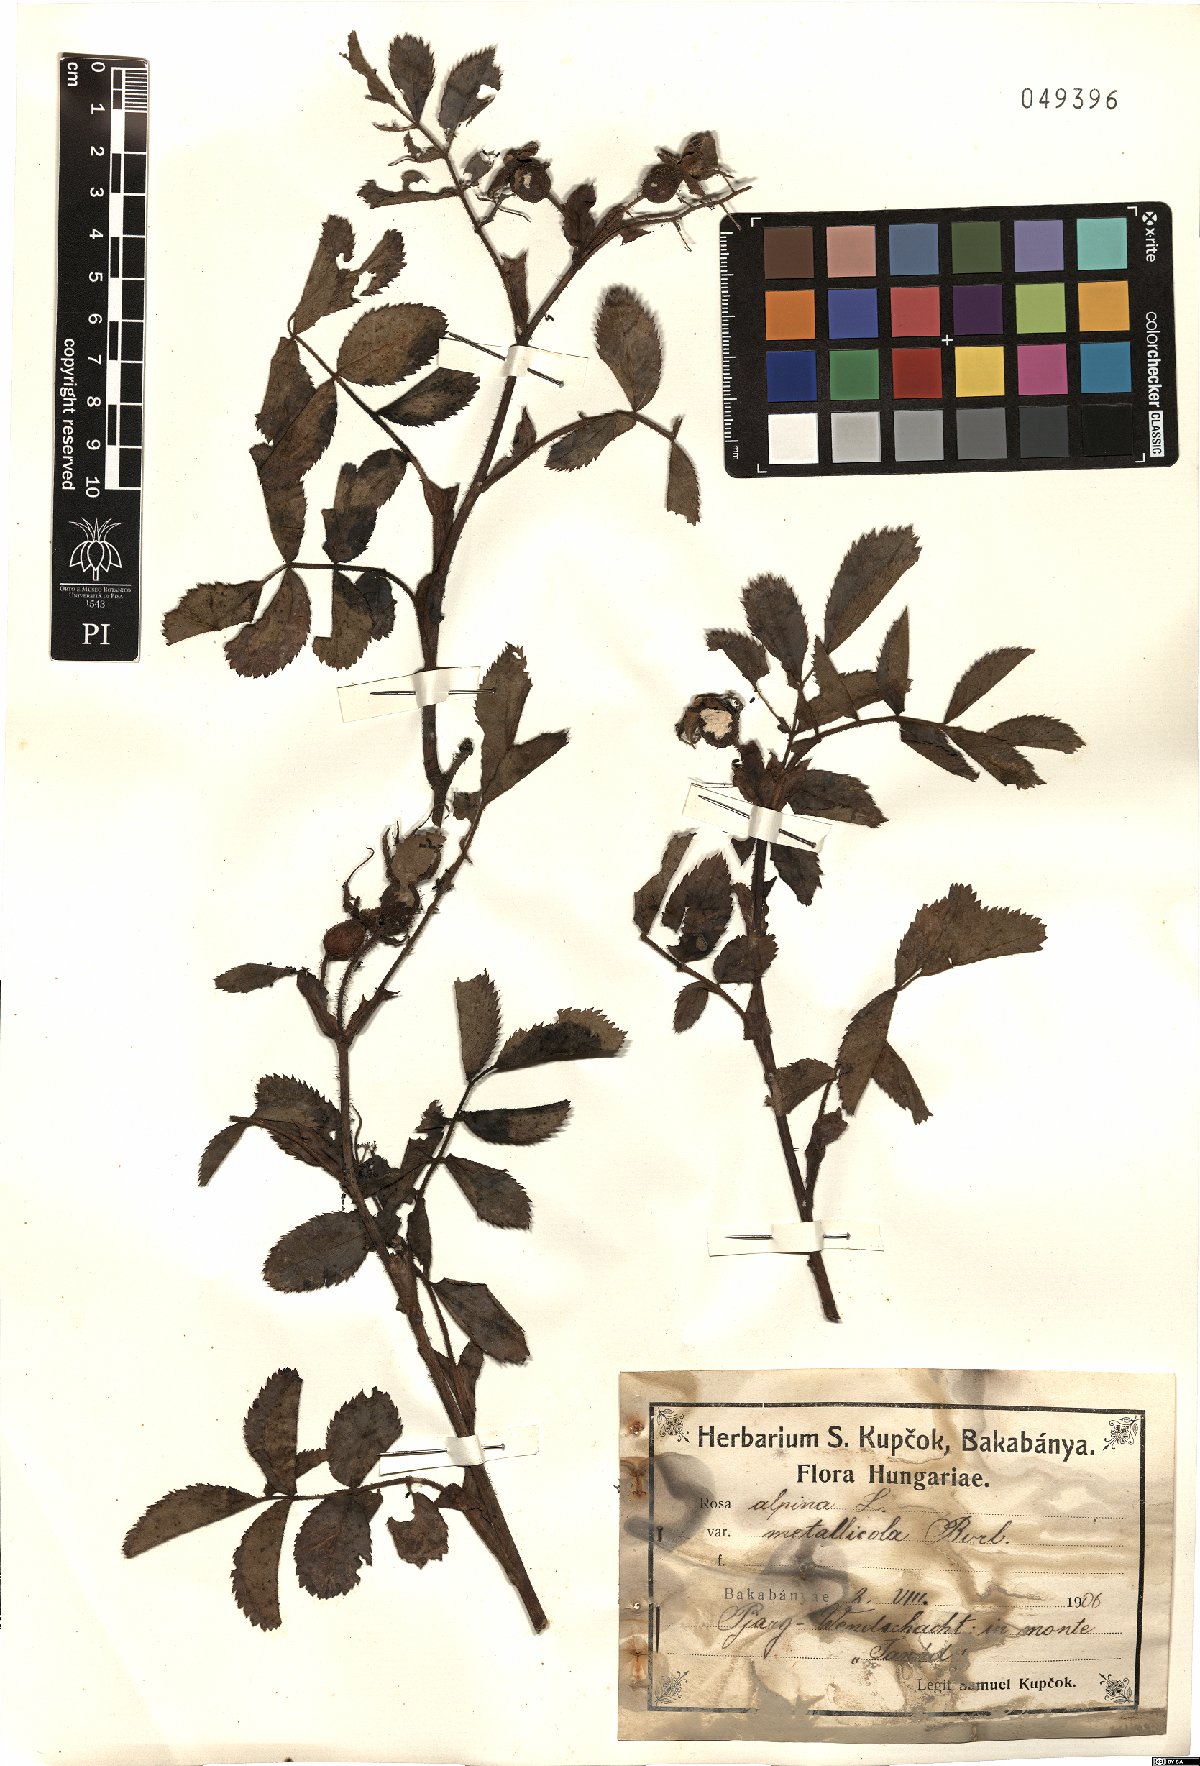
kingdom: Plantae
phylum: Tracheophyta
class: Magnoliopsida
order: Rosales
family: Rosaceae
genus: Rosa
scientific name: Rosa
